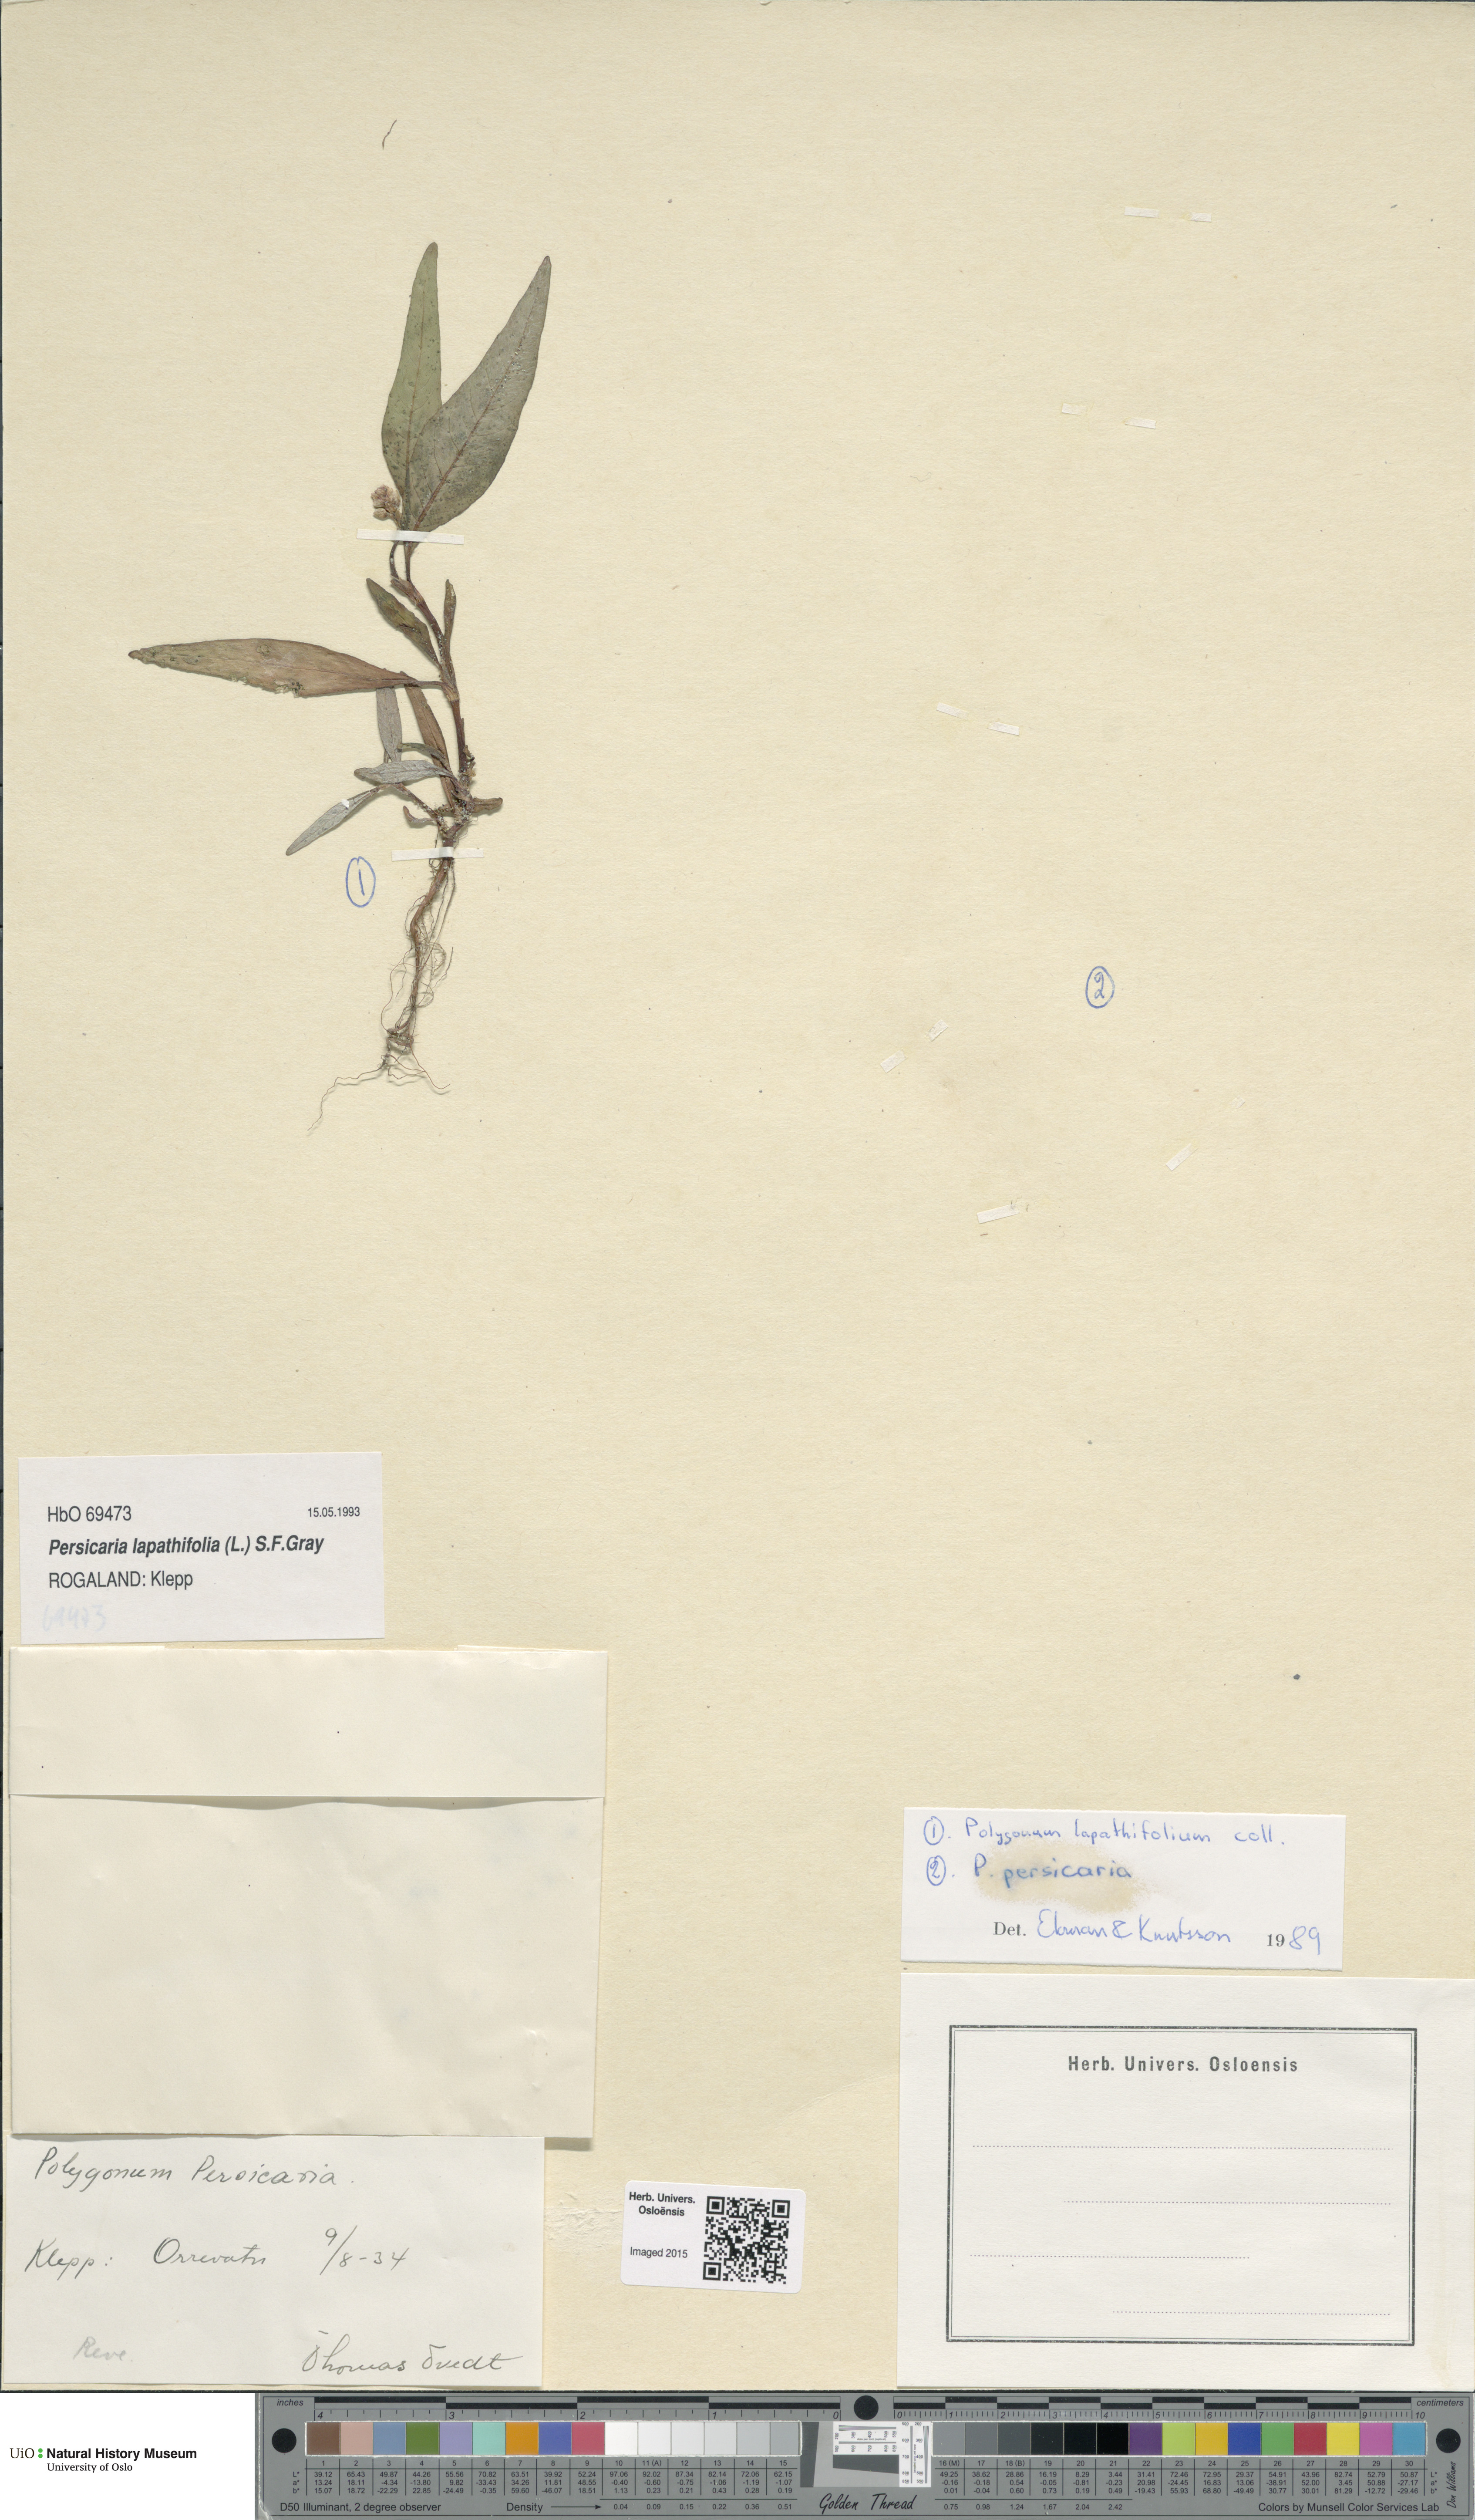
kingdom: Plantae
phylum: Tracheophyta
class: Magnoliopsida
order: Caryophyllales
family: Polygonaceae
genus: Persicaria
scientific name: Persicaria lapathifolia
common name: Curlytop knotweed
